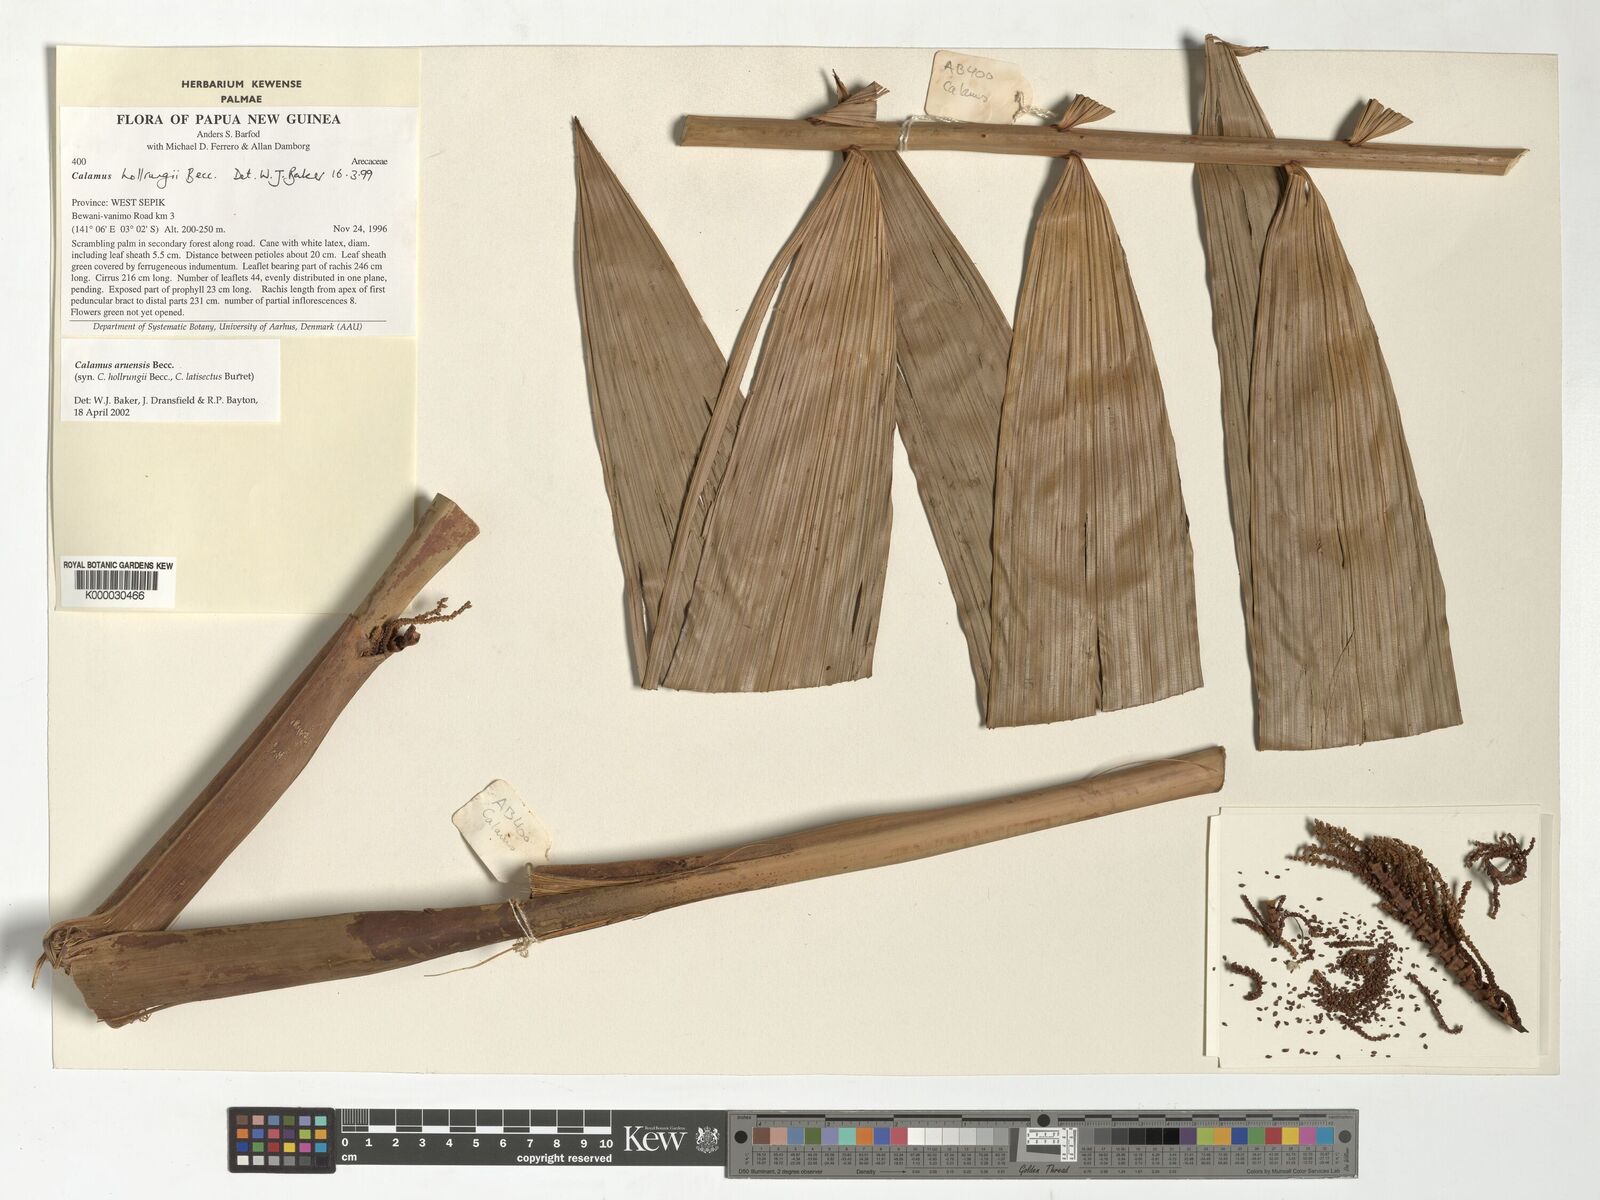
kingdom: Plantae
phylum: Tracheophyta
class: Liliopsida
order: Arecales
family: Arecaceae
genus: Calamus
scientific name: Calamus aruensis
